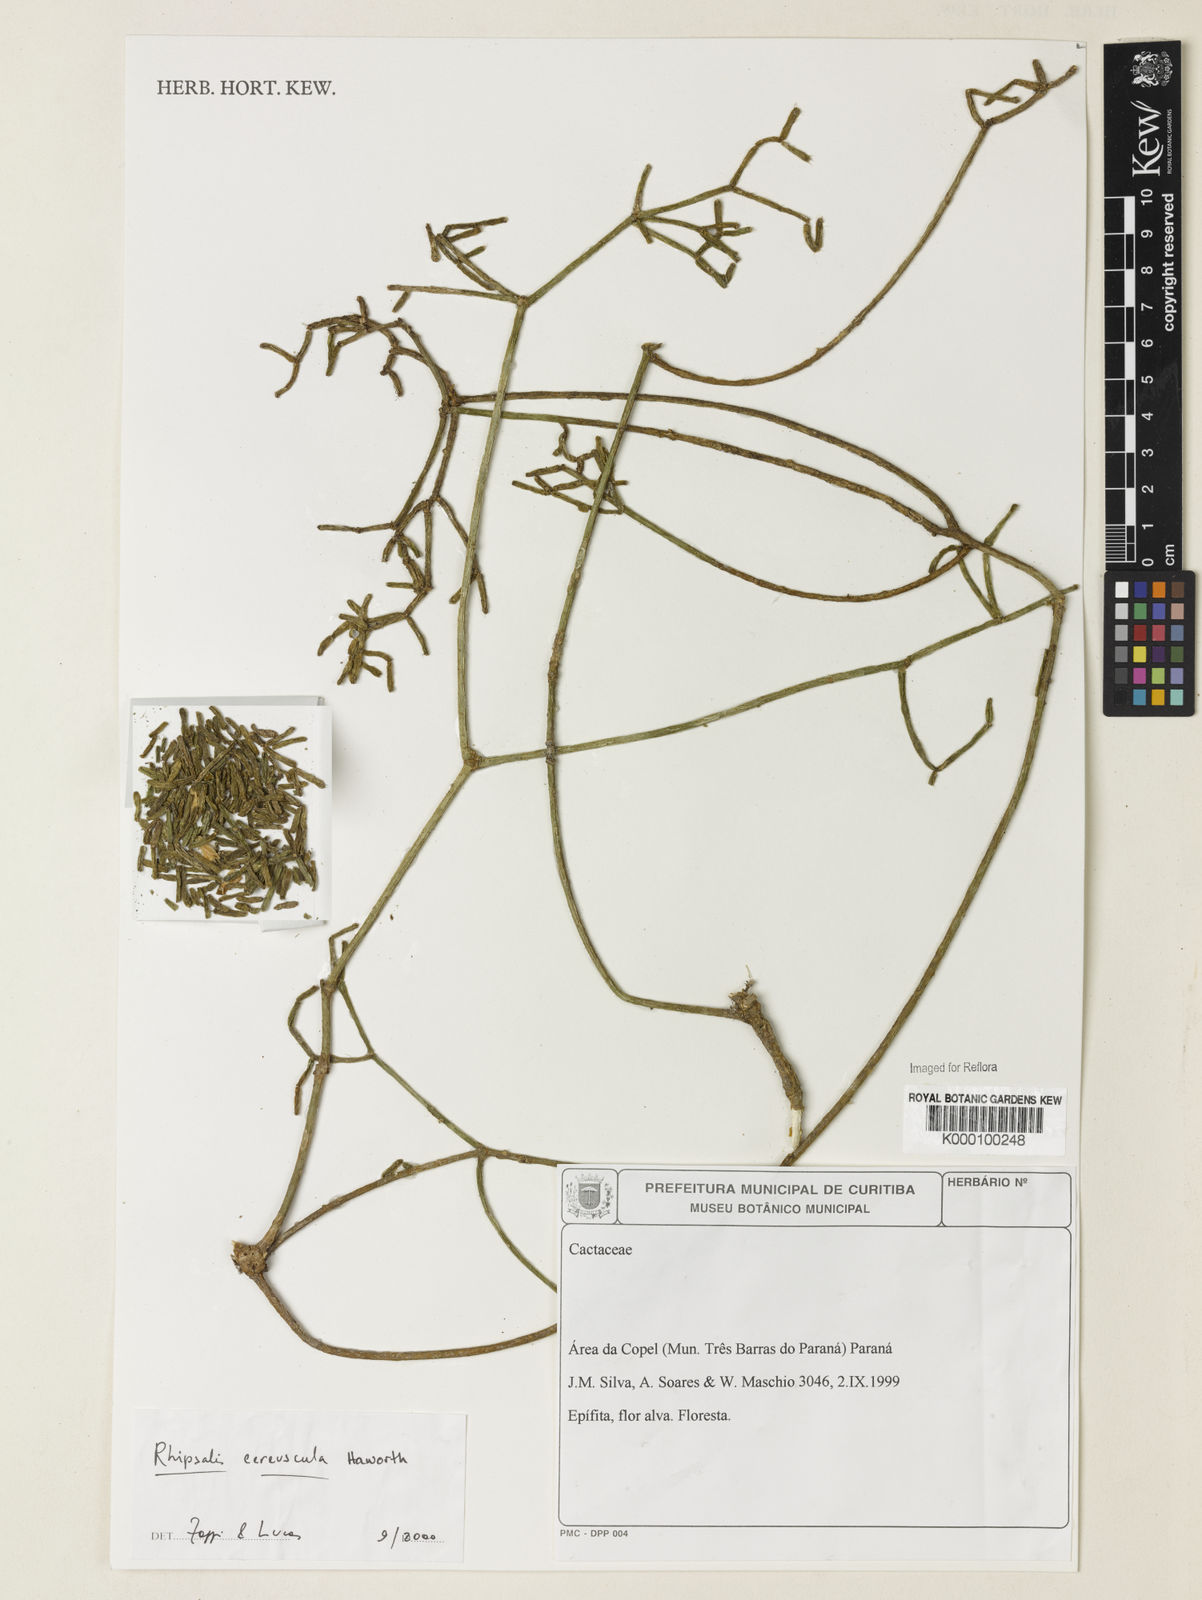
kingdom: Plantae
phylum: Tracheophyta
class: Magnoliopsida
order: Caryophyllales
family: Cactaceae
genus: Rhipsalis
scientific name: Rhipsalis cereuscula
